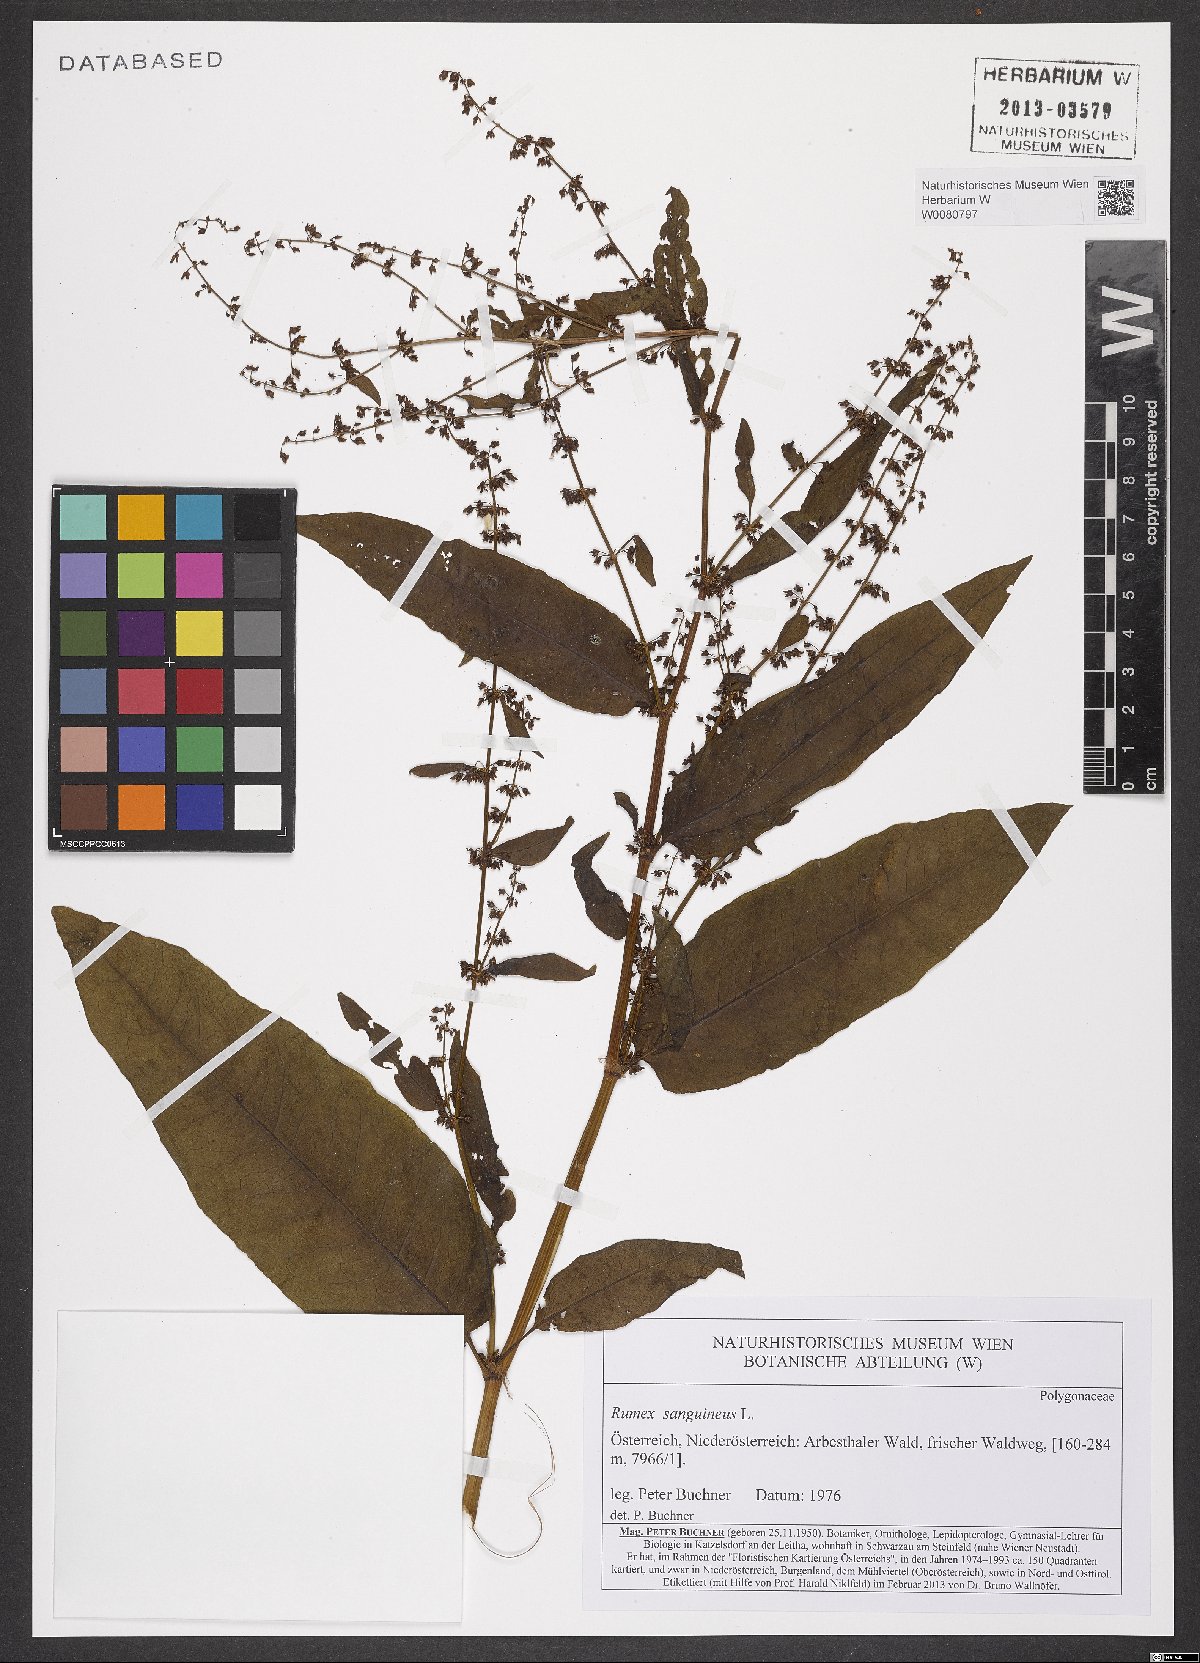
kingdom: Plantae
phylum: Tracheophyta
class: Magnoliopsida
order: Caryophyllales
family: Polygonaceae
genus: Rumex
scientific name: Rumex sanguineus
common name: Wood dock
